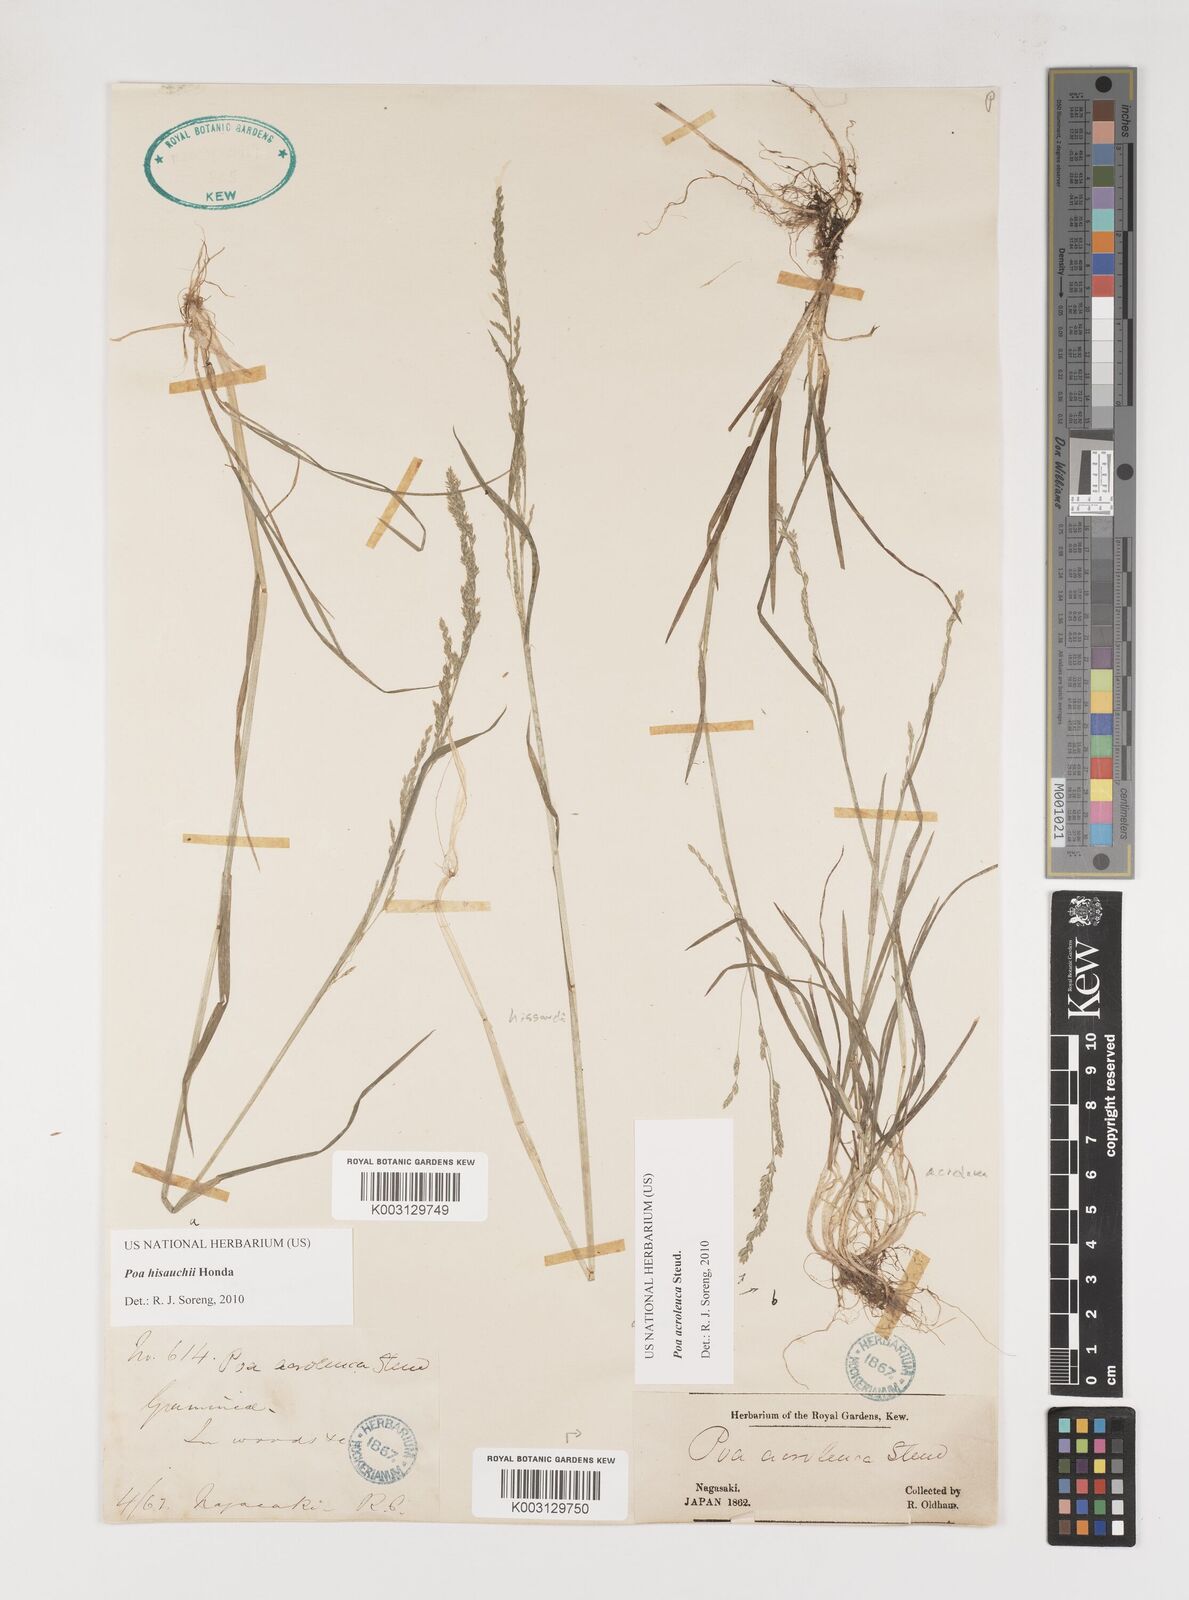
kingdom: Plantae
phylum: Tracheophyta
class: Liliopsida
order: Poales
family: Poaceae
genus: Poa
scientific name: Poa hisauchii
